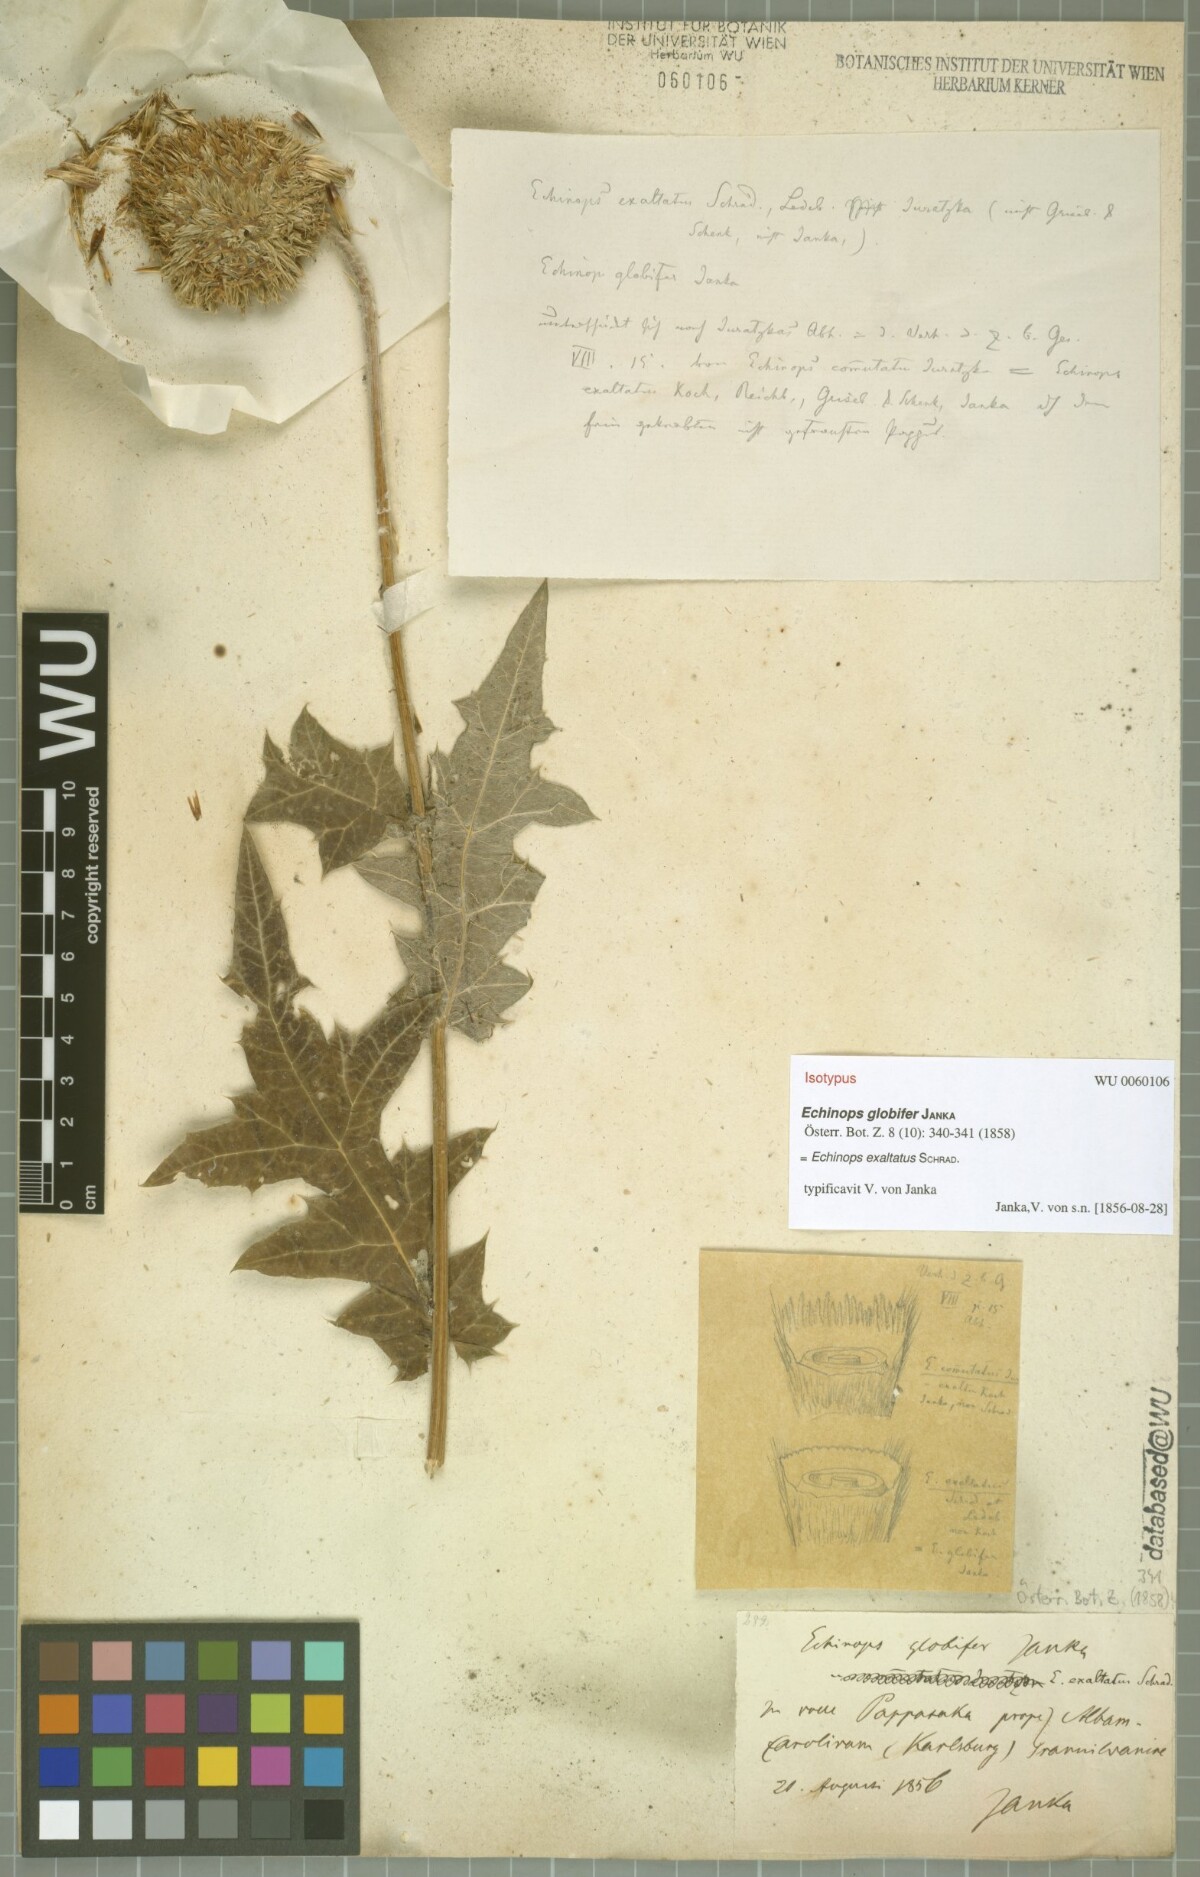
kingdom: Plantae
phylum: Tracheophyta
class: Magnoliopsida
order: Asterales
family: Asteraceae
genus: Echinops
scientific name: Echinops exaltatus
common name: Globe-thistle
